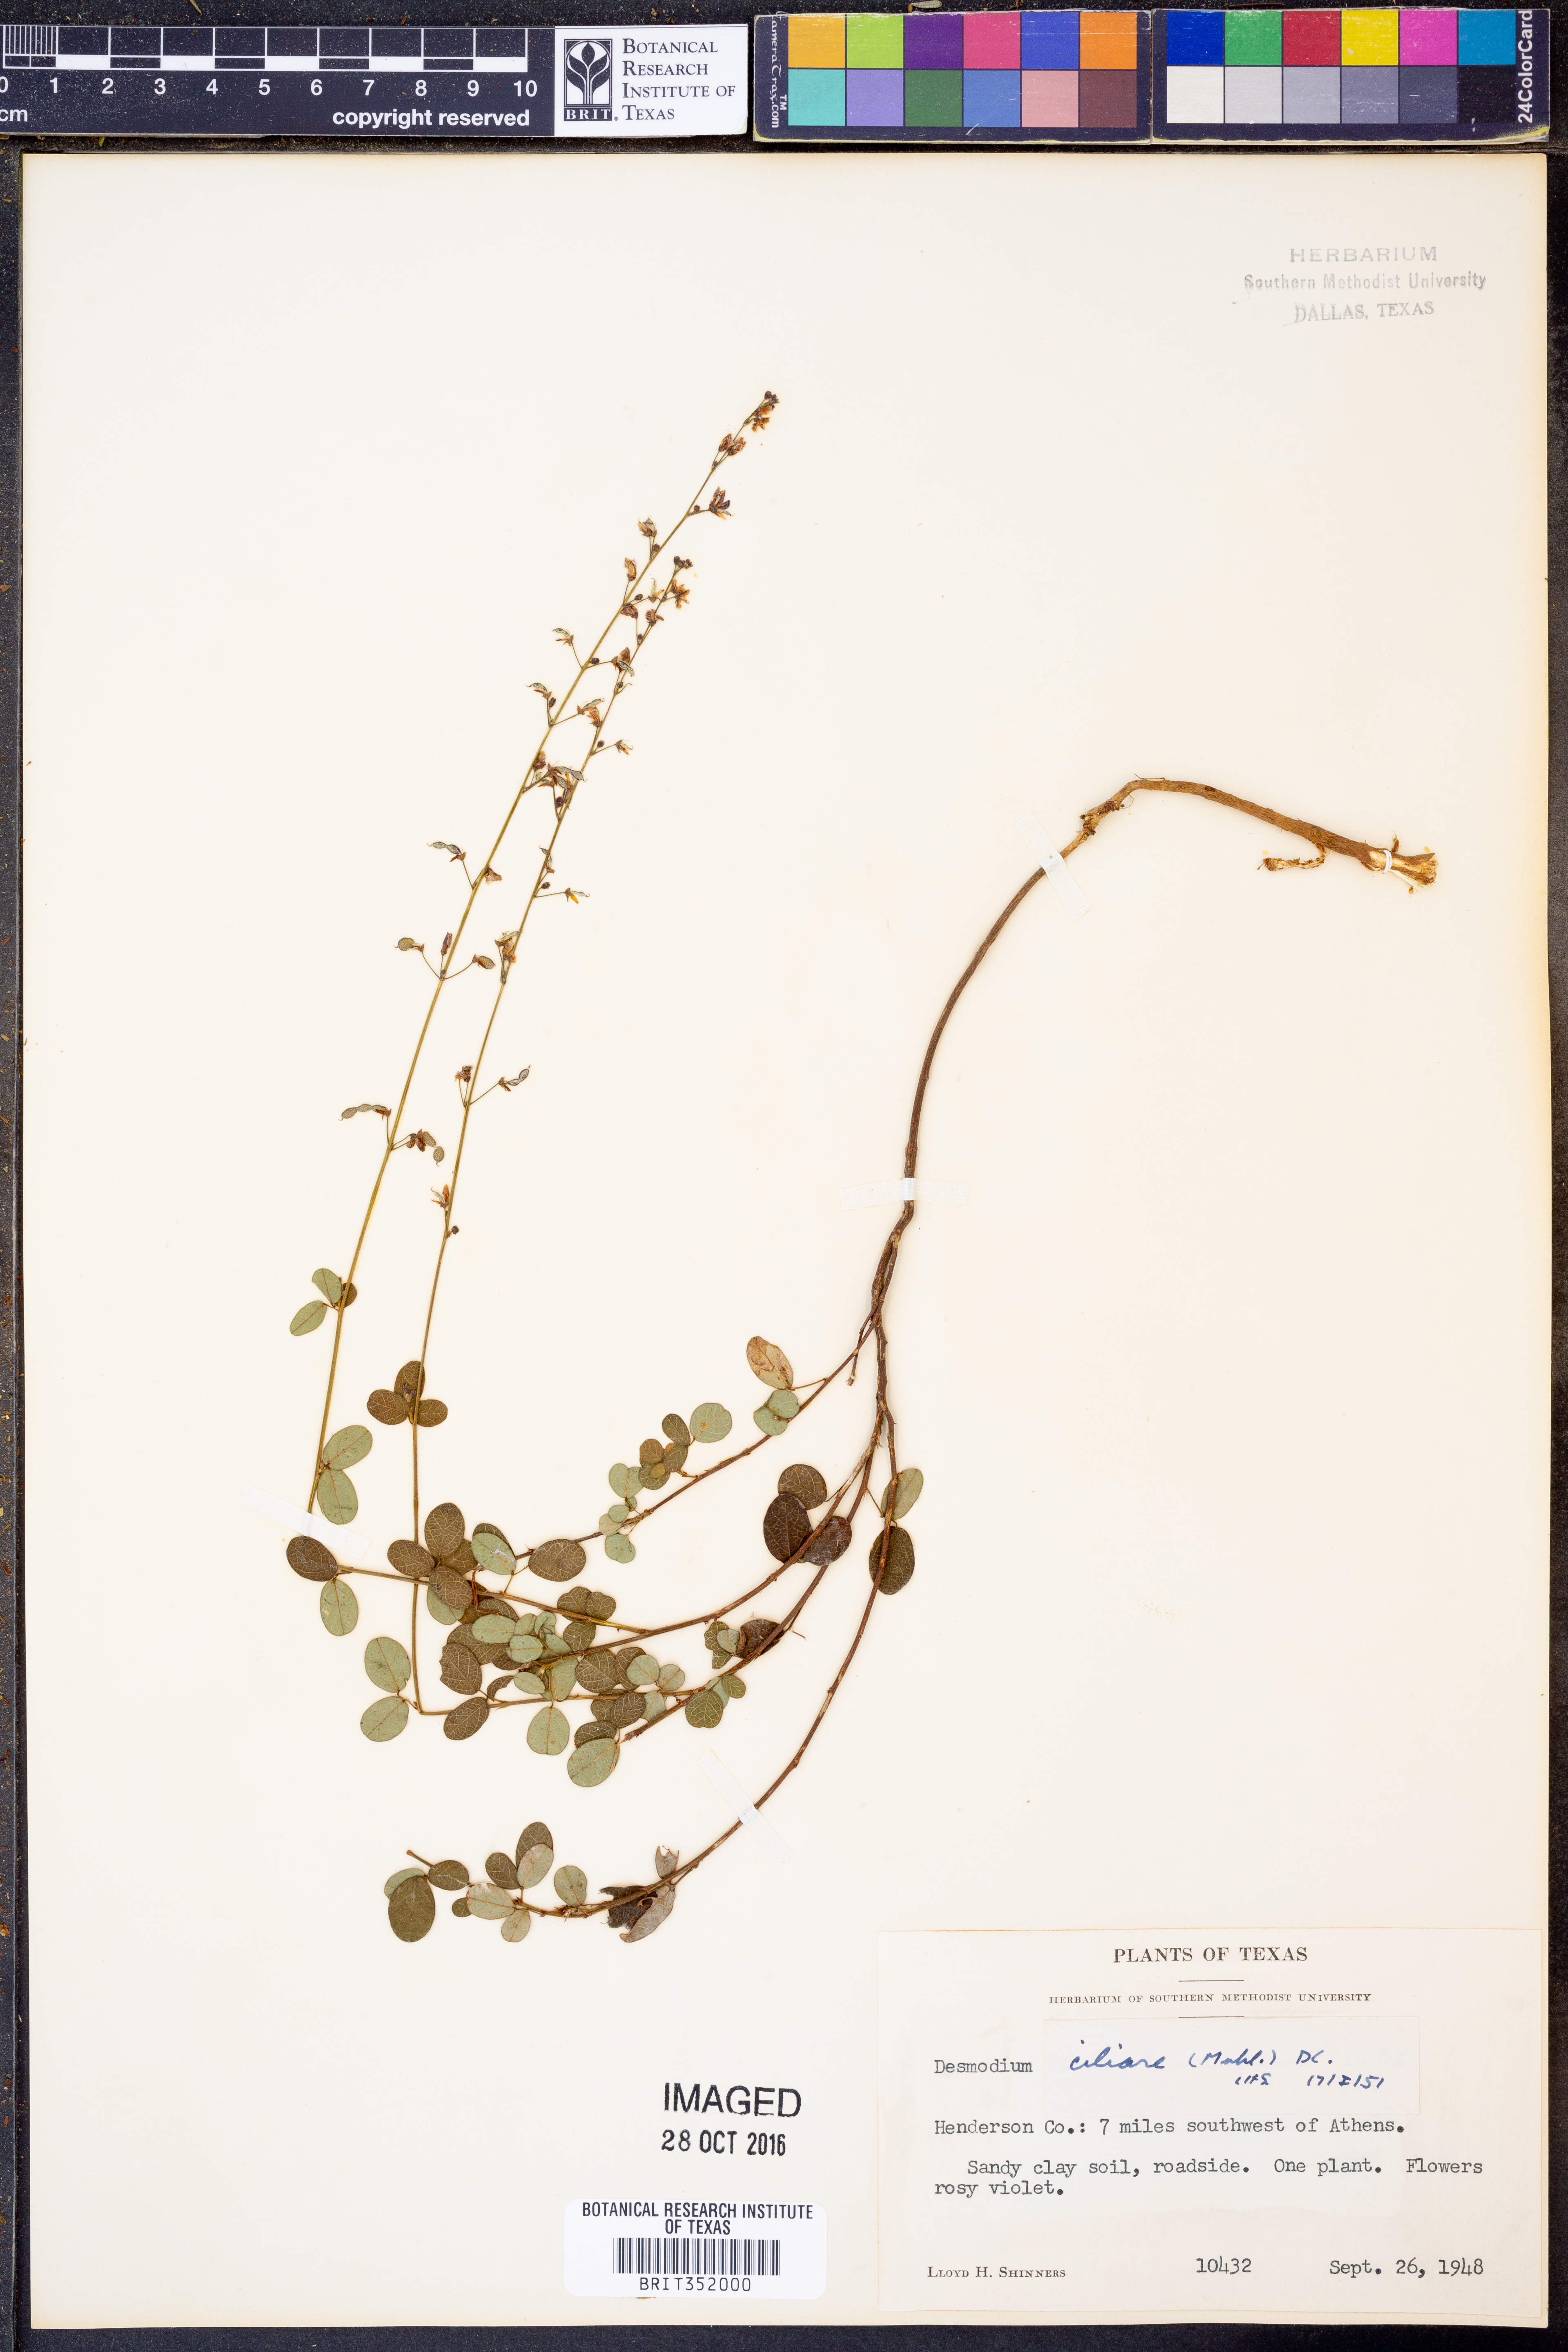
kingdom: Plantae
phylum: Tracheophyta
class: Magnoliopsida
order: Fabales
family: Fabaceae
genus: Desmodium
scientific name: Desmodium ciliare
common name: Hairy small-leaf ticktrefoil
